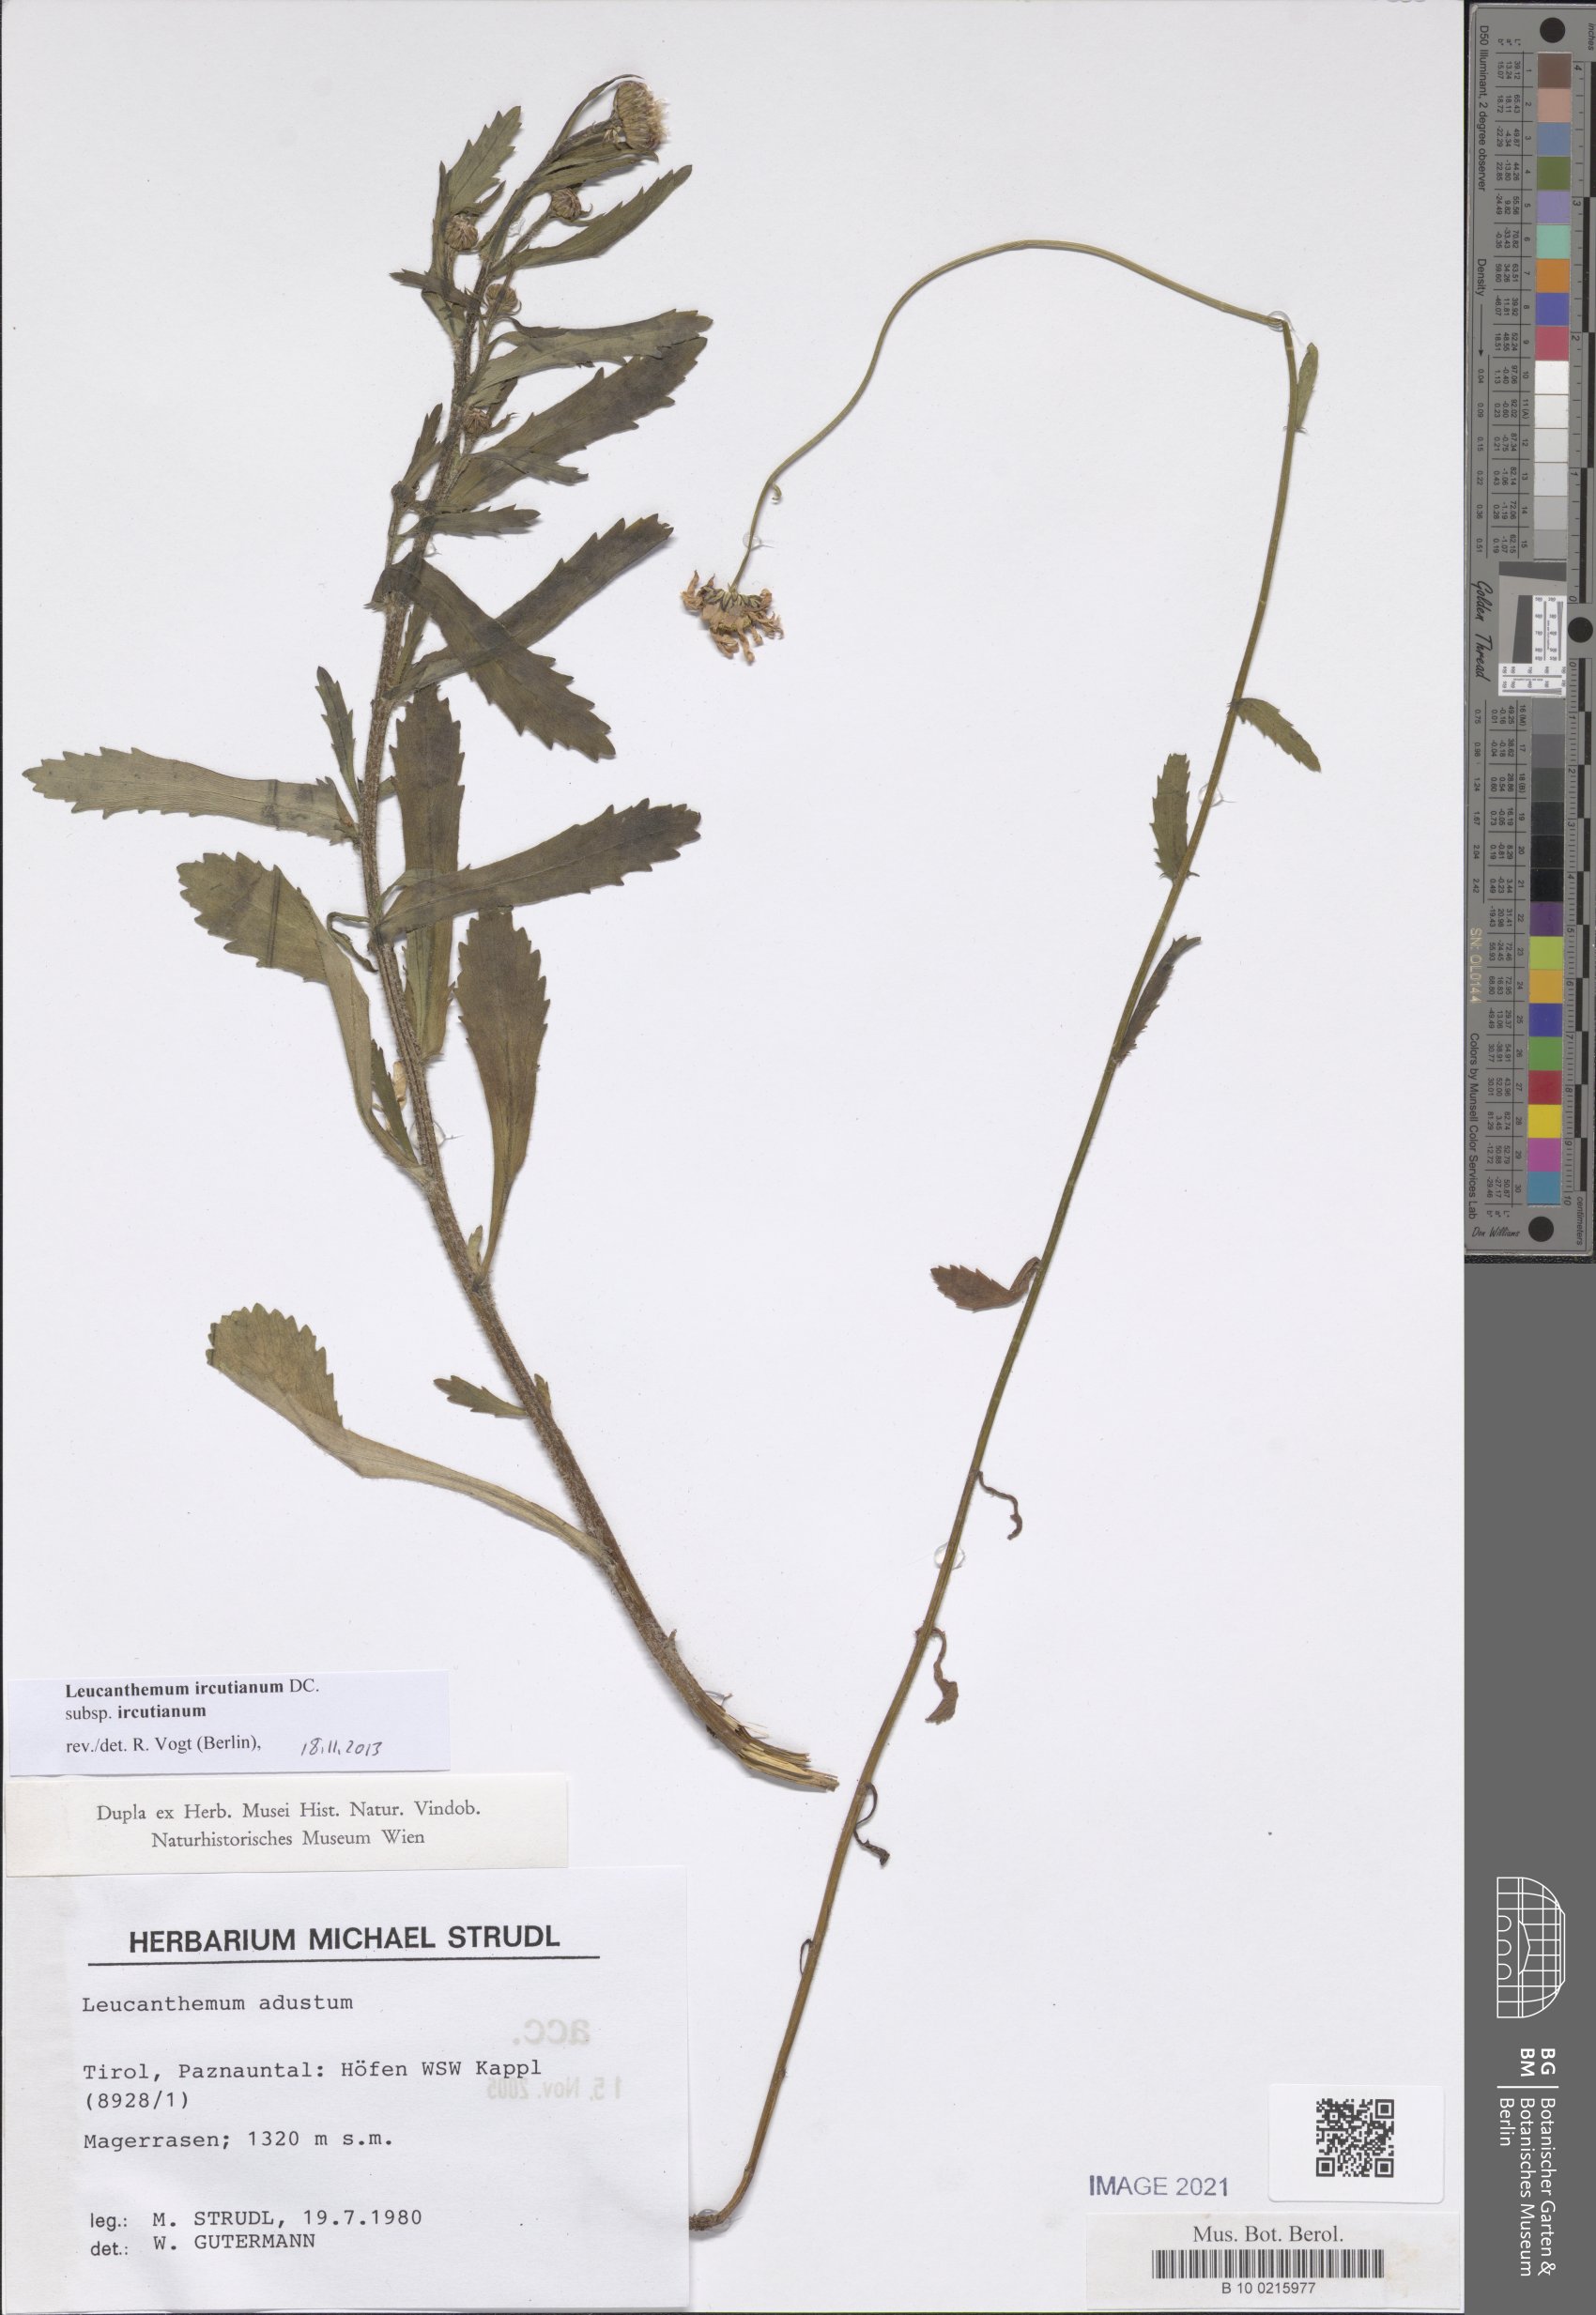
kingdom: Plantae
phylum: Tracheophyta
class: Magnoliopsida
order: Asterales
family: Asteraceae
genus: Leucanthemum
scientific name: Leucanthemum ircutianum
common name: Daisy
